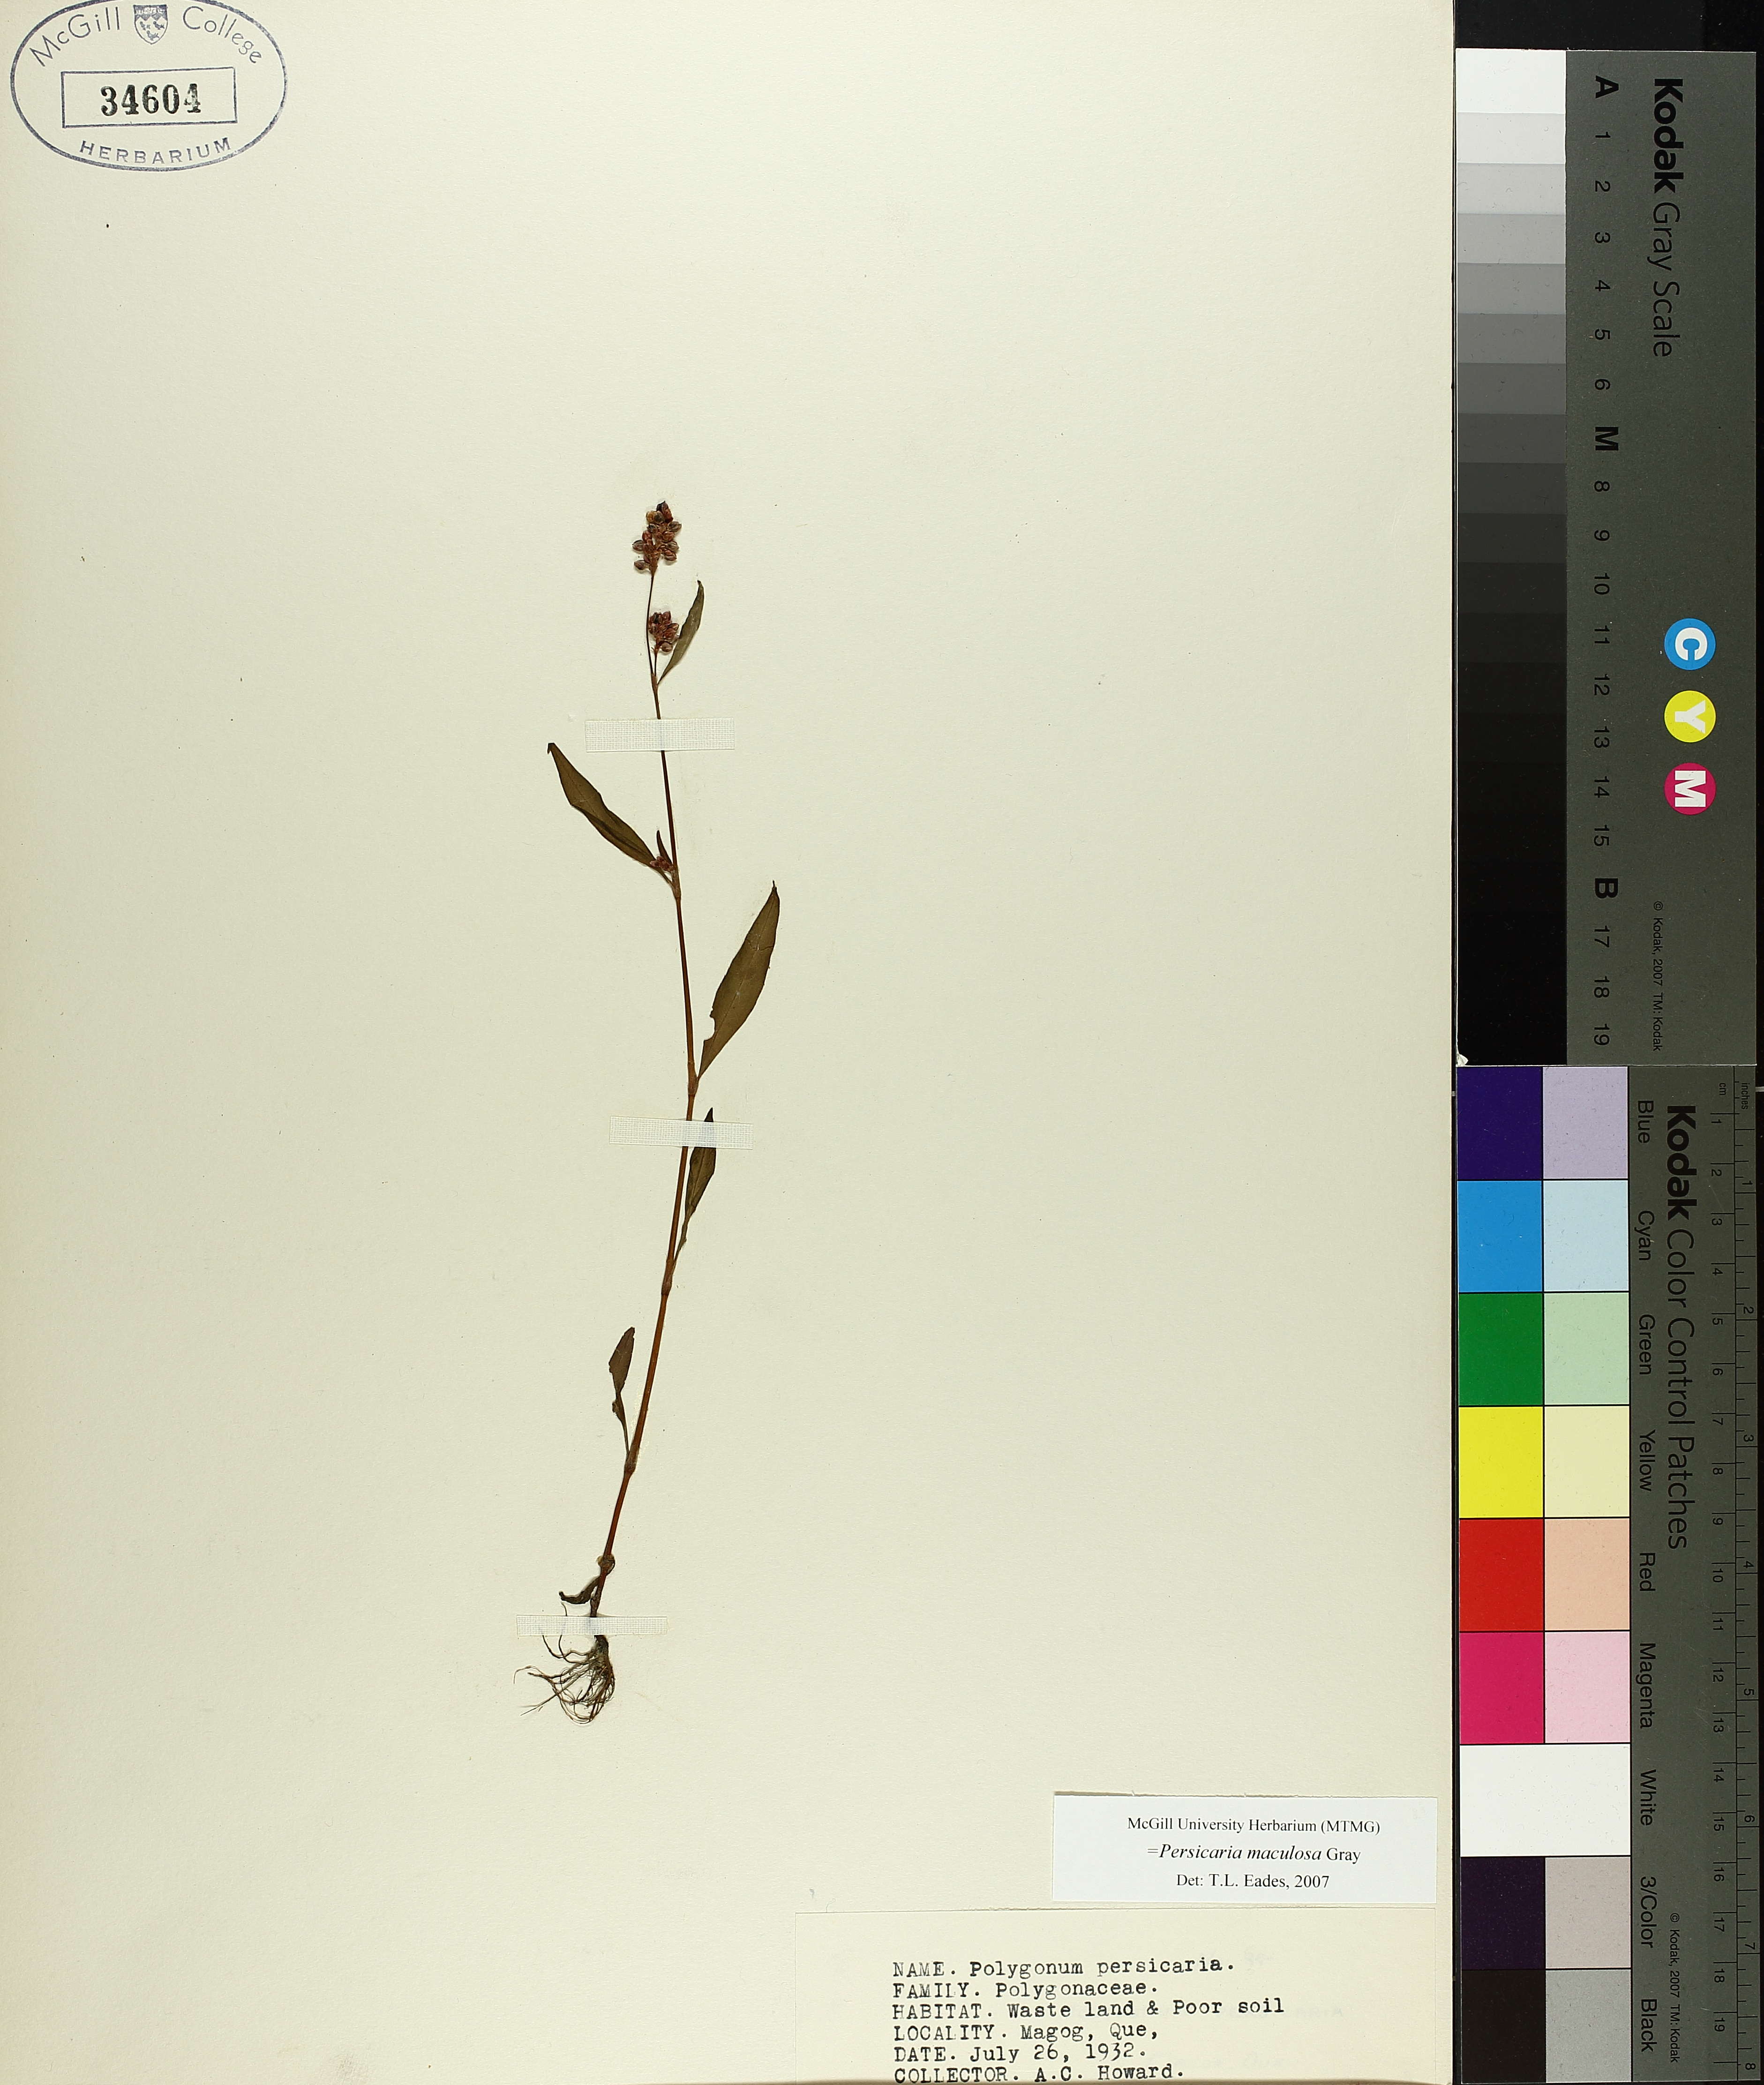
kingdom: Plantae
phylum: Tracheophyta
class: Magnoliopsida
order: Caryophyllales
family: Polygonaceae
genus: Persicaria
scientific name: Persicaria maculosa
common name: Redshank
